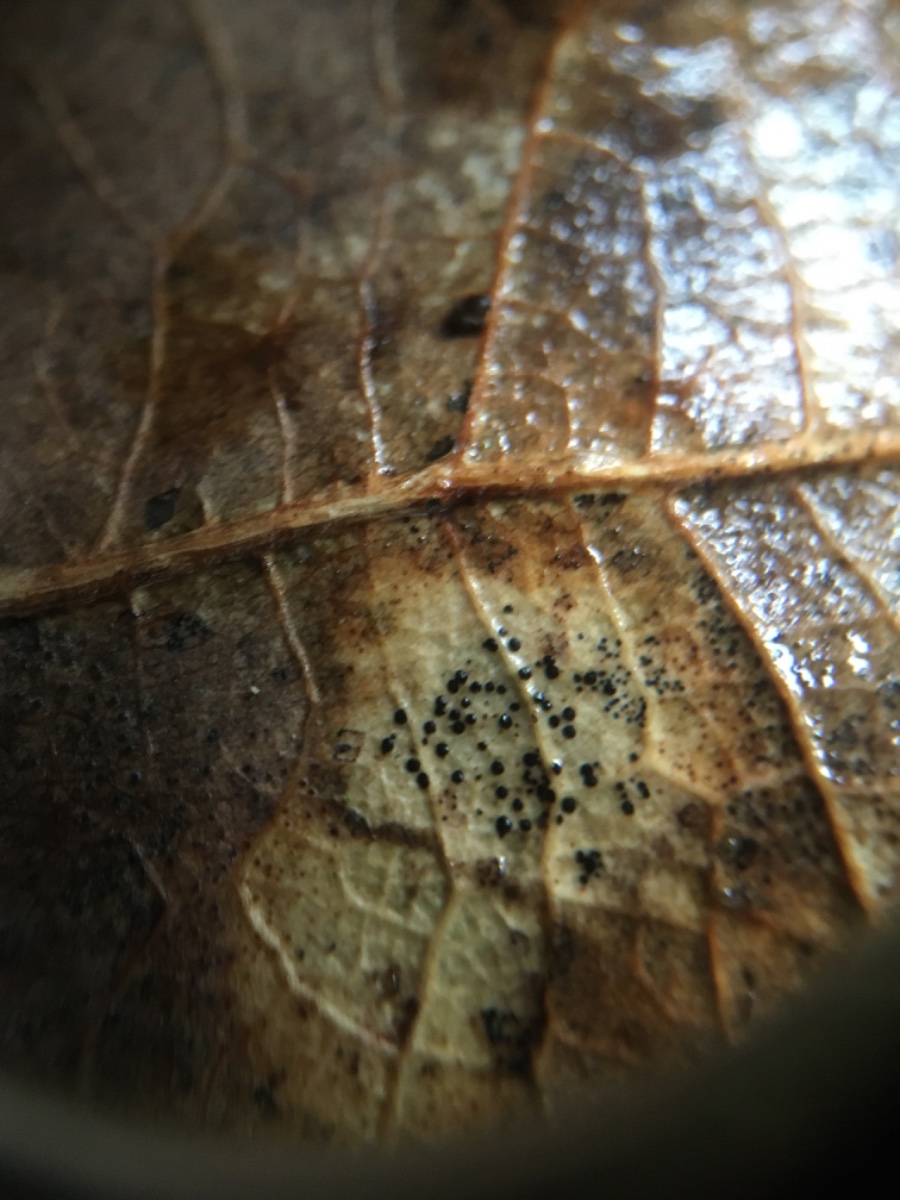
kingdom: Fungi
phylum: Ascomycota
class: Dothideomycetes
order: Capnodiales
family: Mycosphaerellaceae
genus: Mycosphaerella
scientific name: Mycosphaerella
